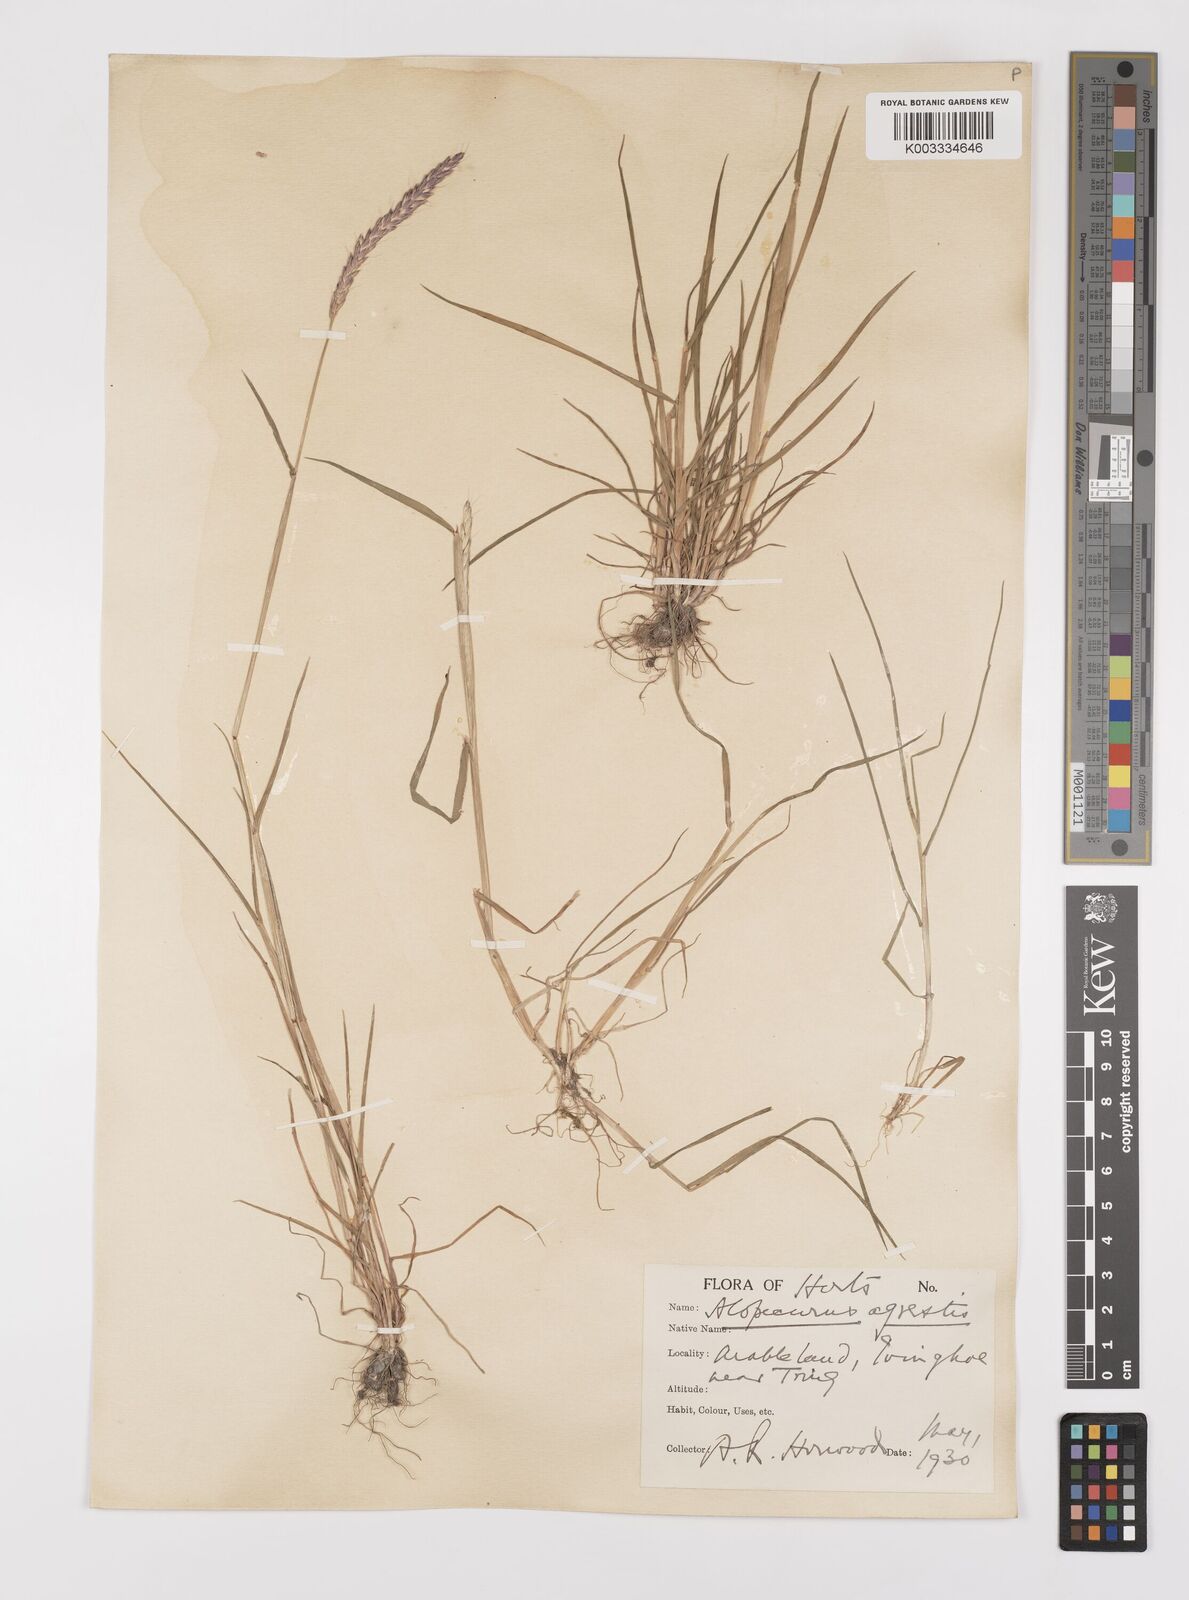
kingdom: Plantae
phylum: Tracheophyta
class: Liliopsida
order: Poales
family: Poaceae
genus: Alopecurus
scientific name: Alopecurus myosuroides
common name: Black-grass
